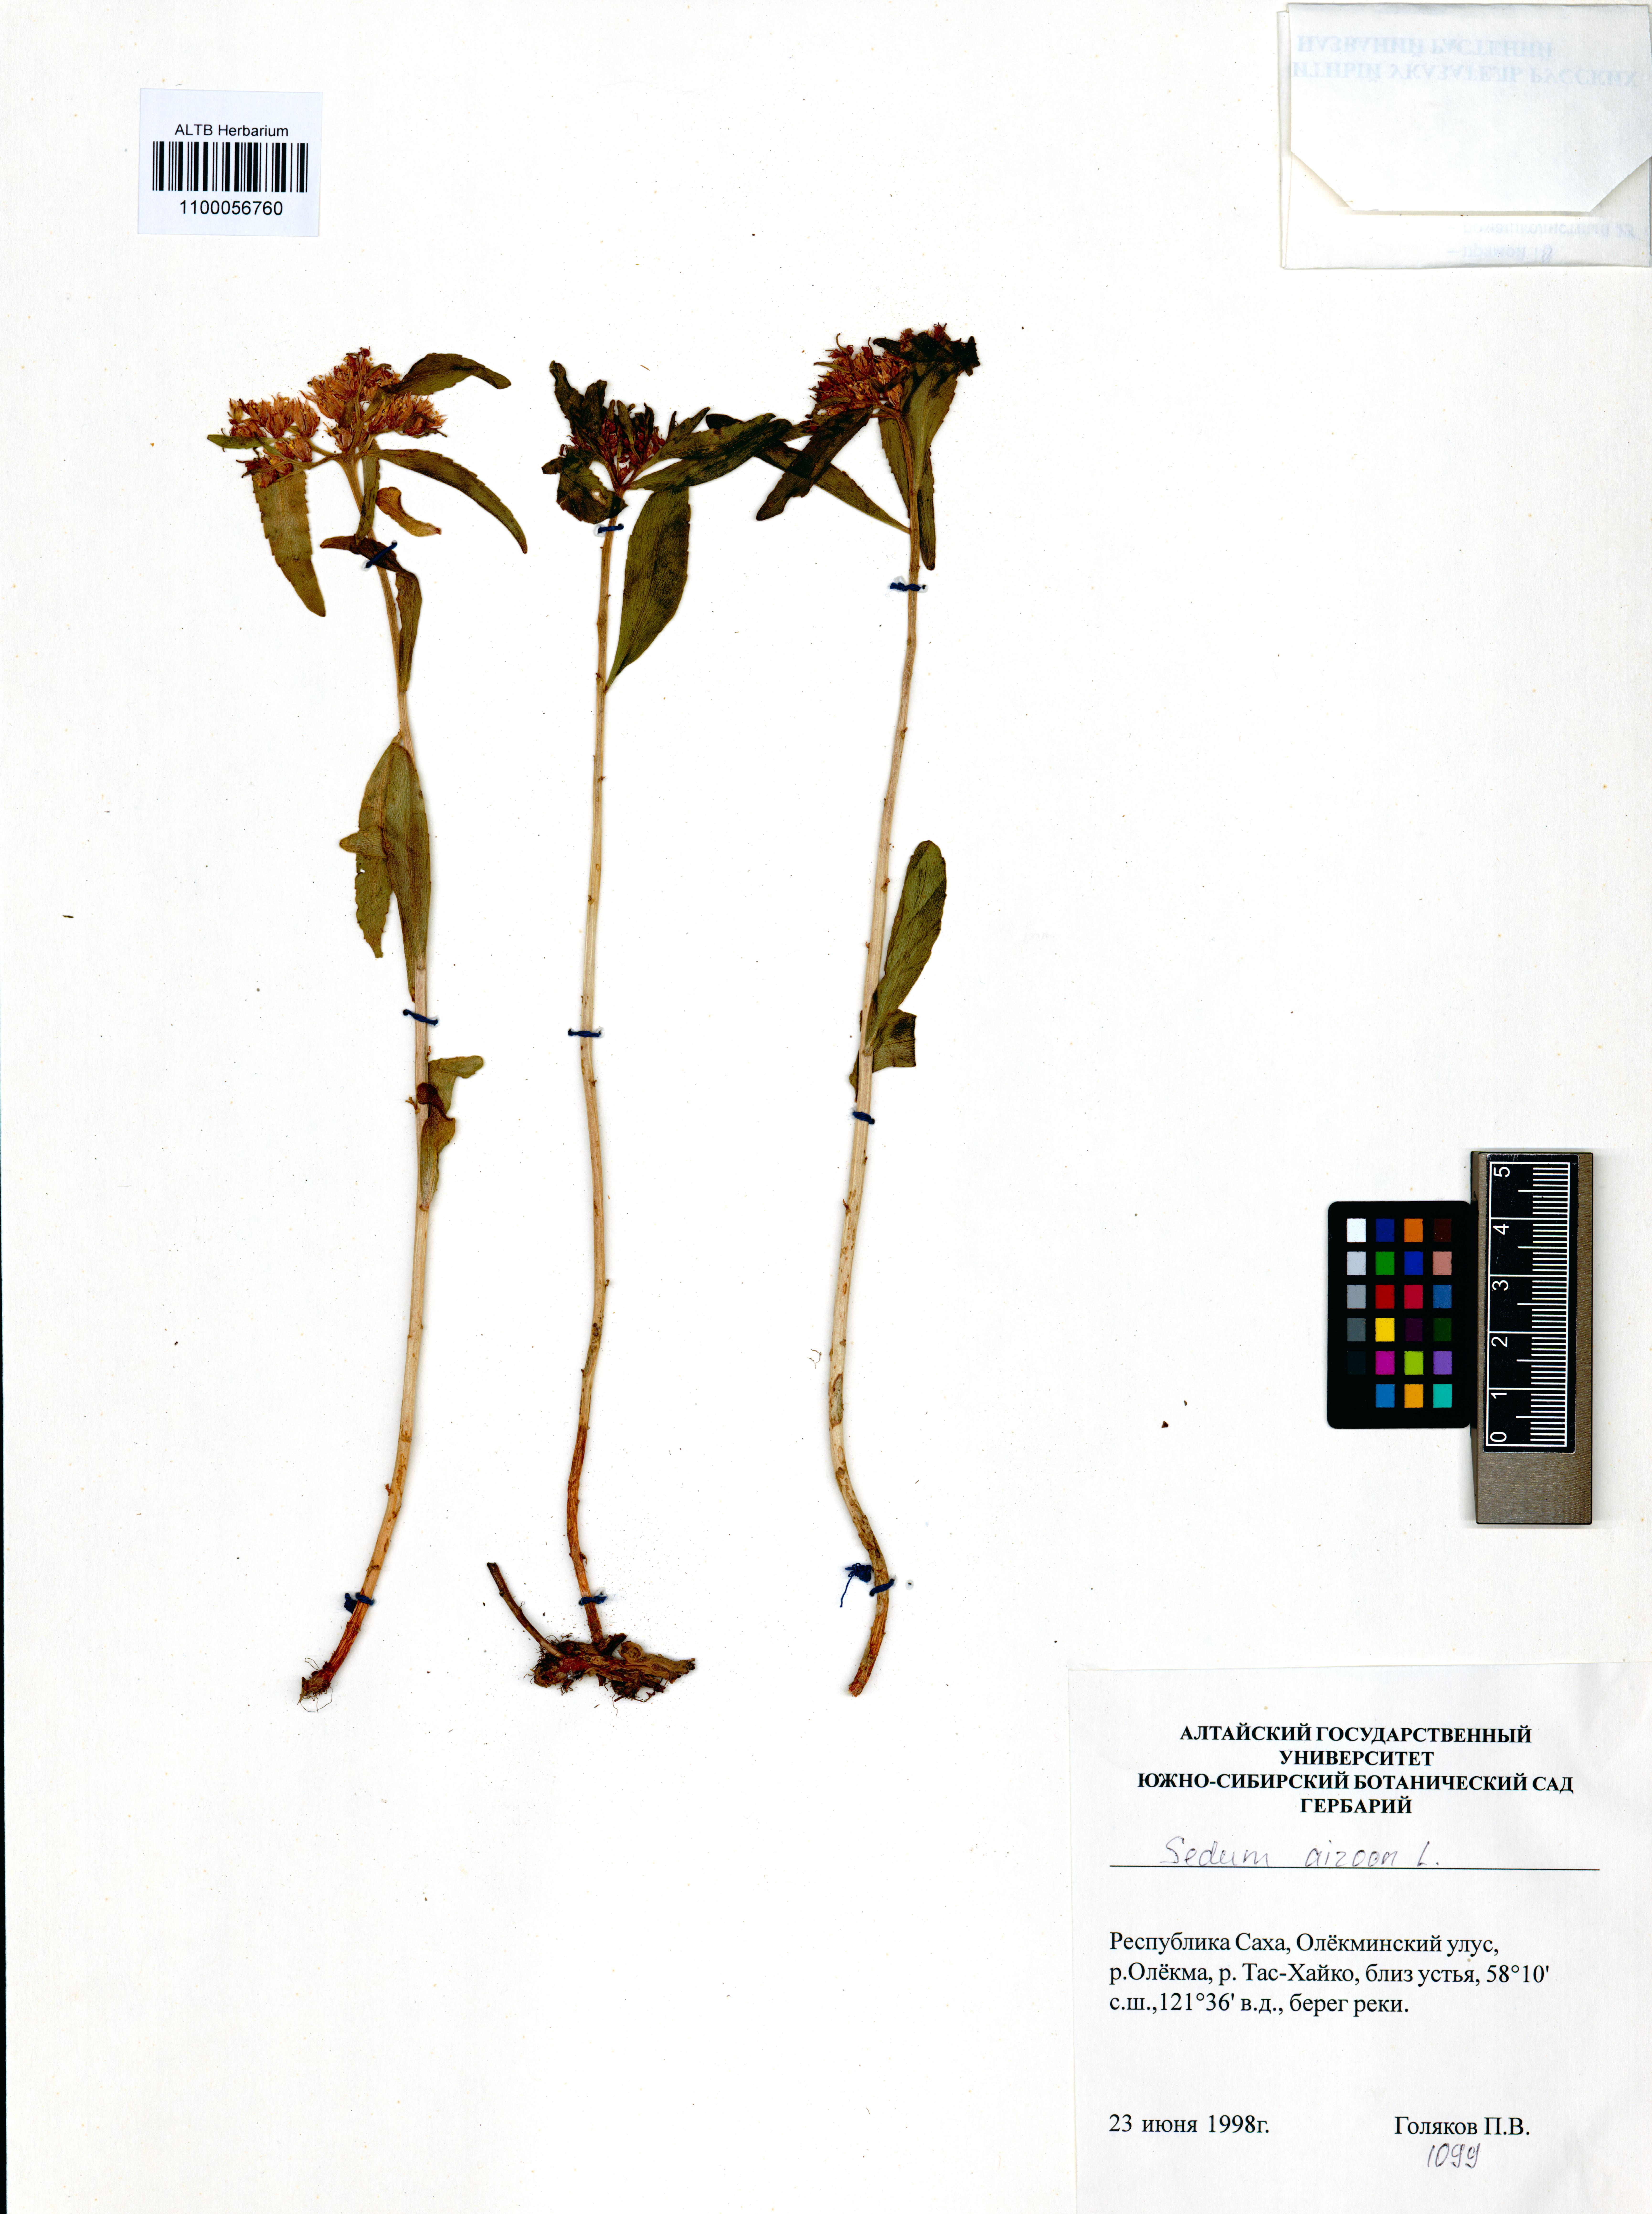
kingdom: Plantae
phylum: Tracheophyta
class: Magnoliopsida
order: Saxifragales
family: Crassulaceae
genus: Phedimus
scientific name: Phedimus aizoon
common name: Orpin aizoon
